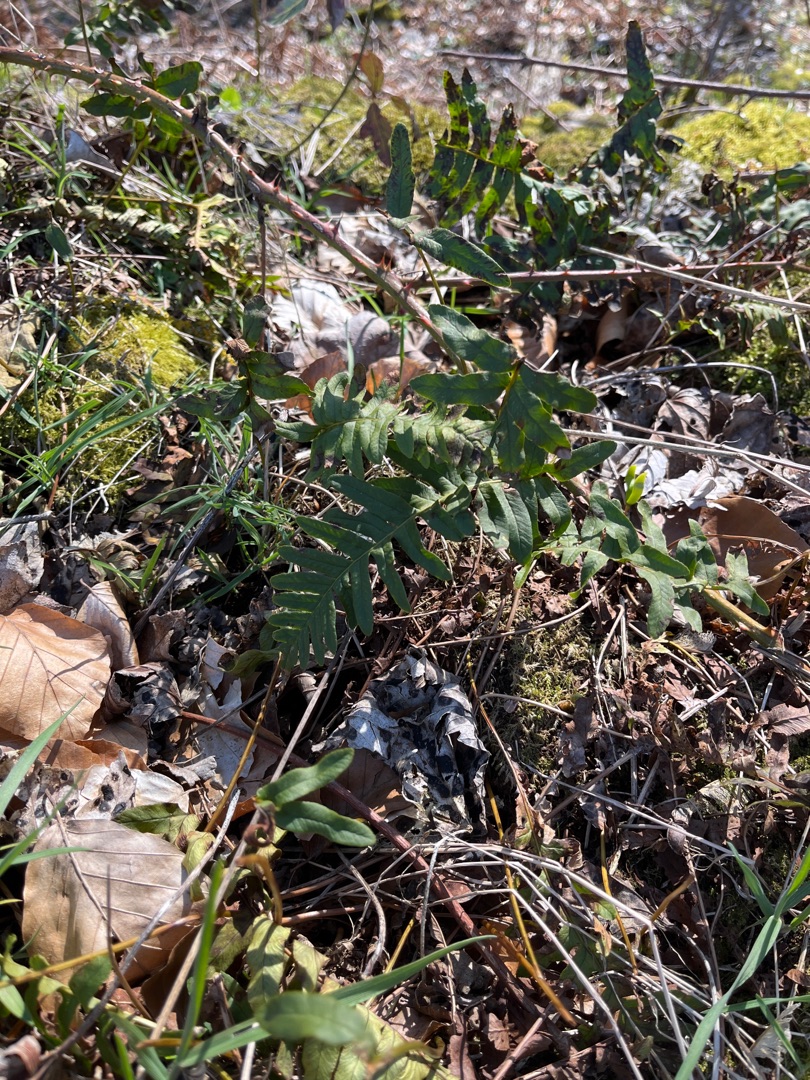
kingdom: Plantae
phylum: Tracheophyta
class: Polypodiopsida
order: Polypodiales
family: Polypodiaceae
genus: Polypodium
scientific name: Polypodium vulgare
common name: Almindelig engelsød
